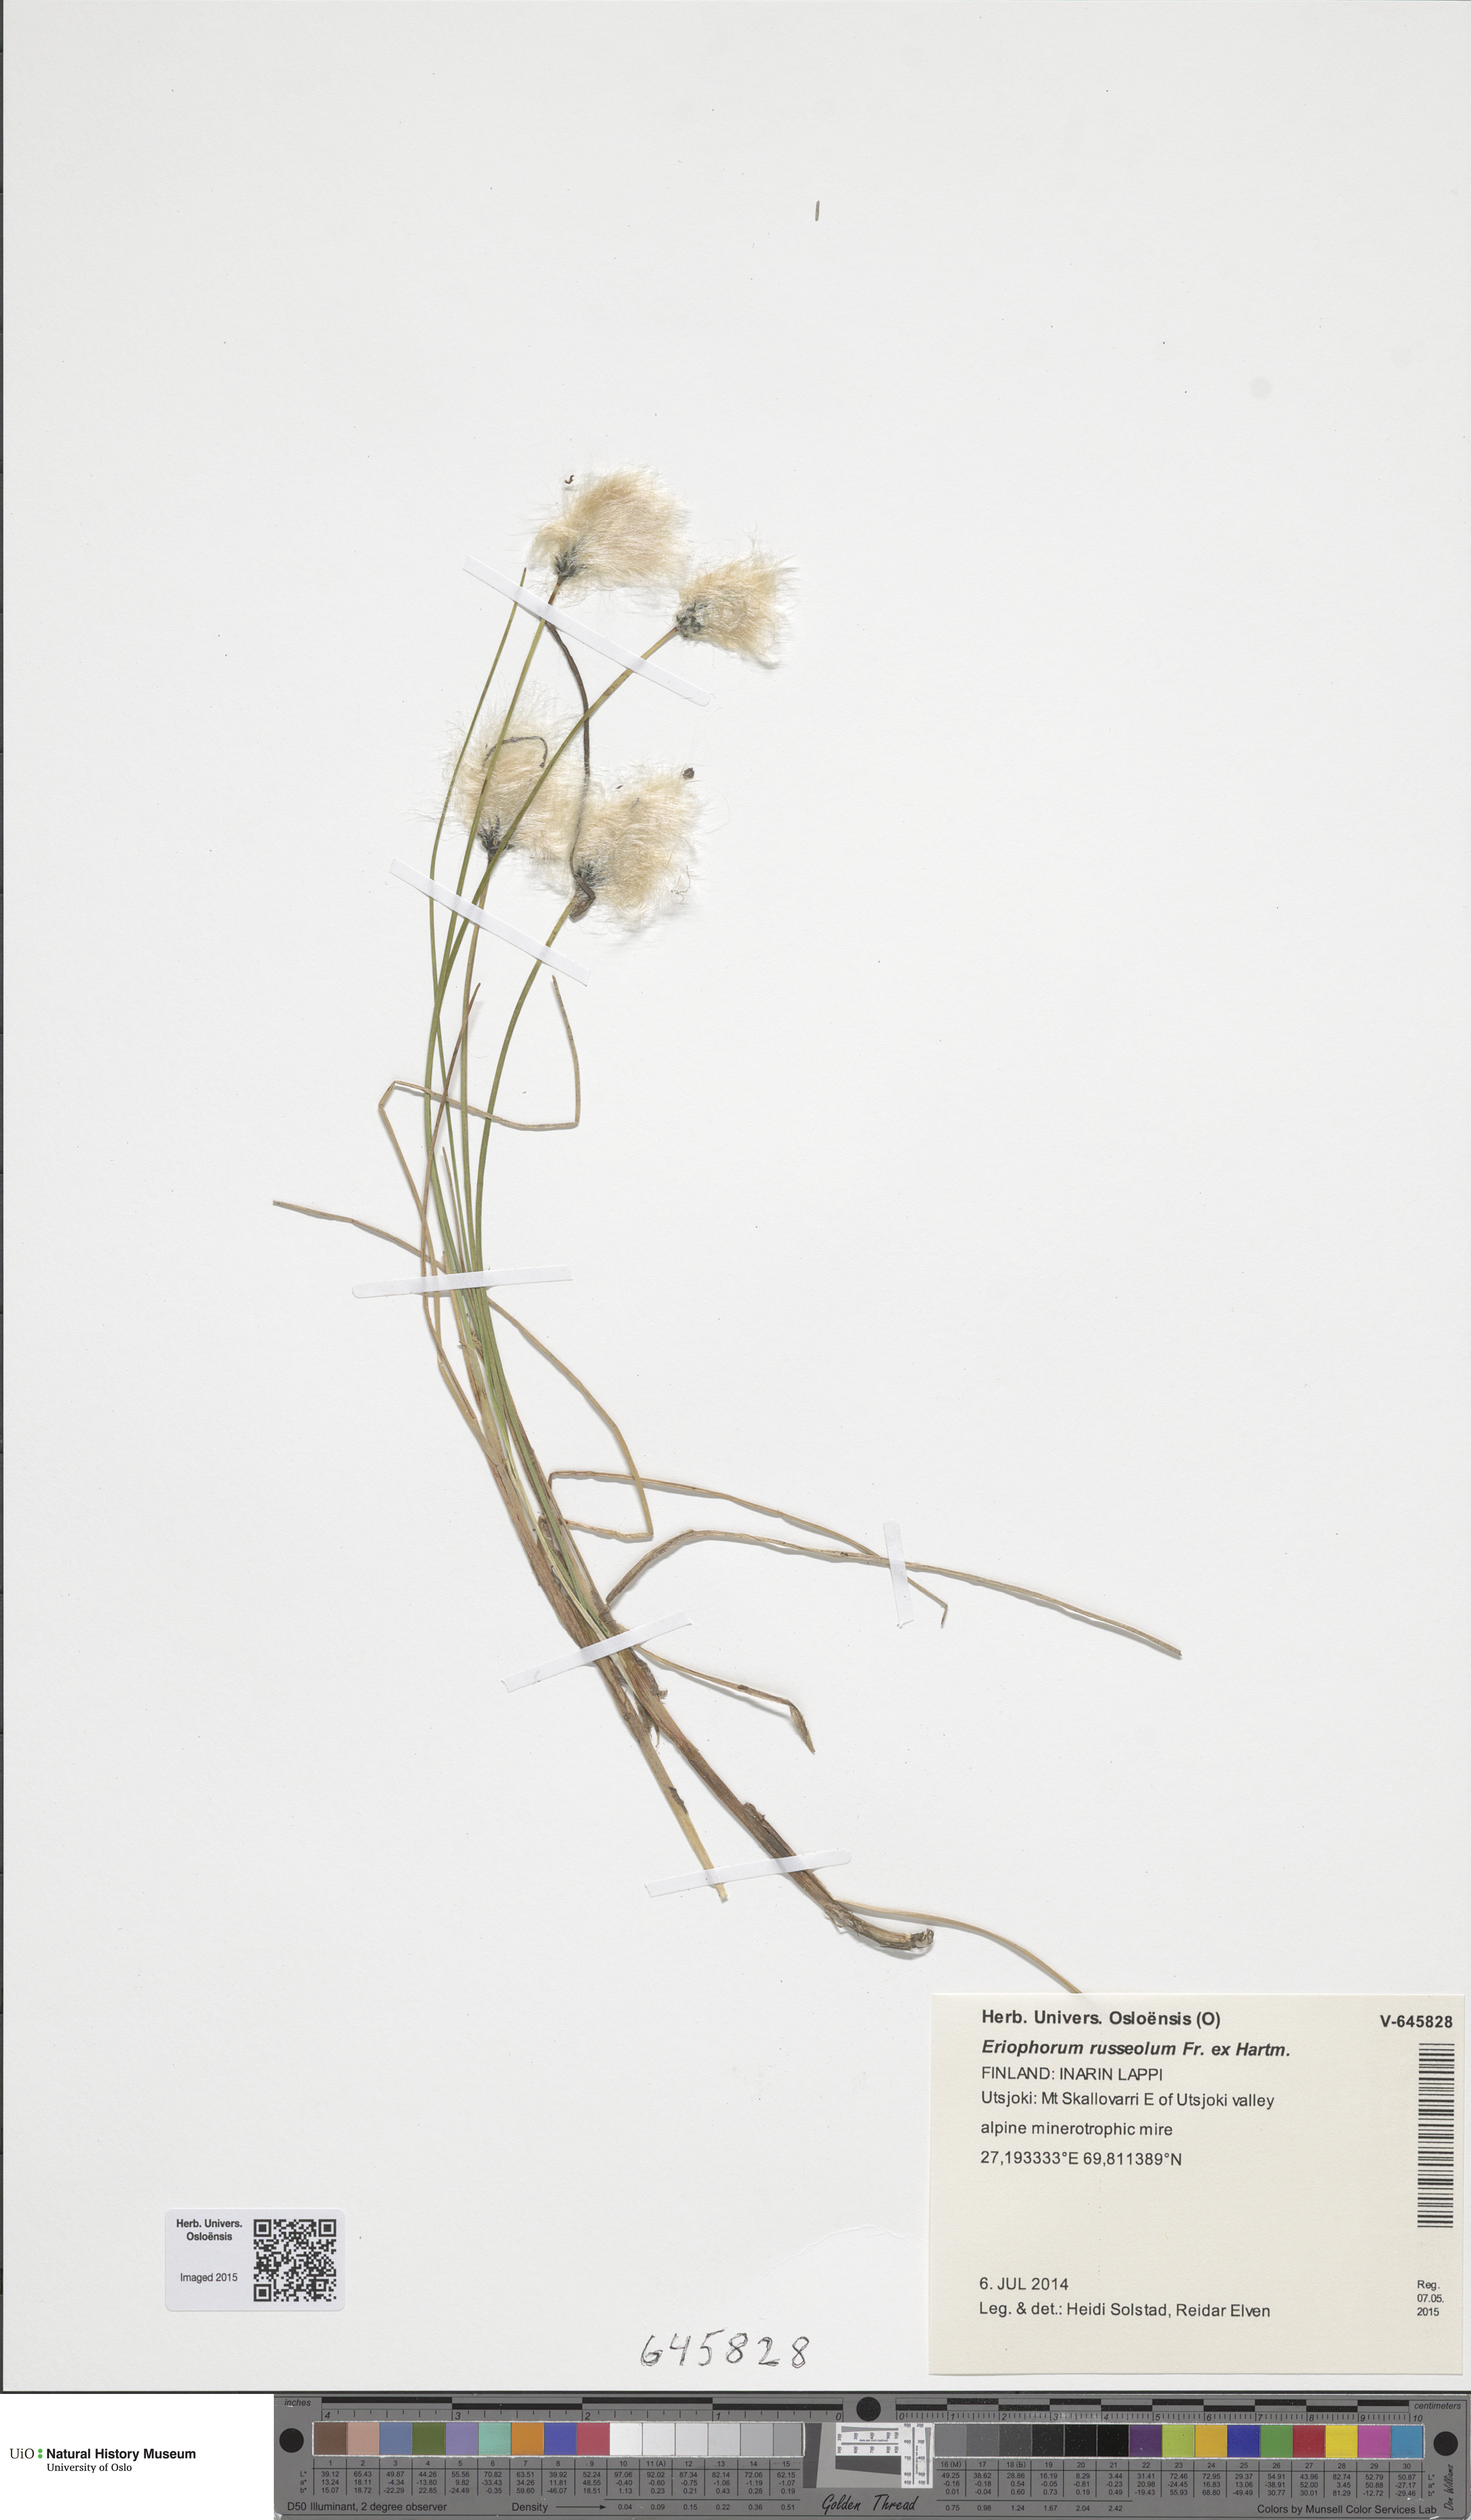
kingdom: Plantae
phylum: Tracheophyta
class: Liliopsida
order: Poales
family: Cyperaceae
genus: Eriophorum
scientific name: Eriophorum russeolum
